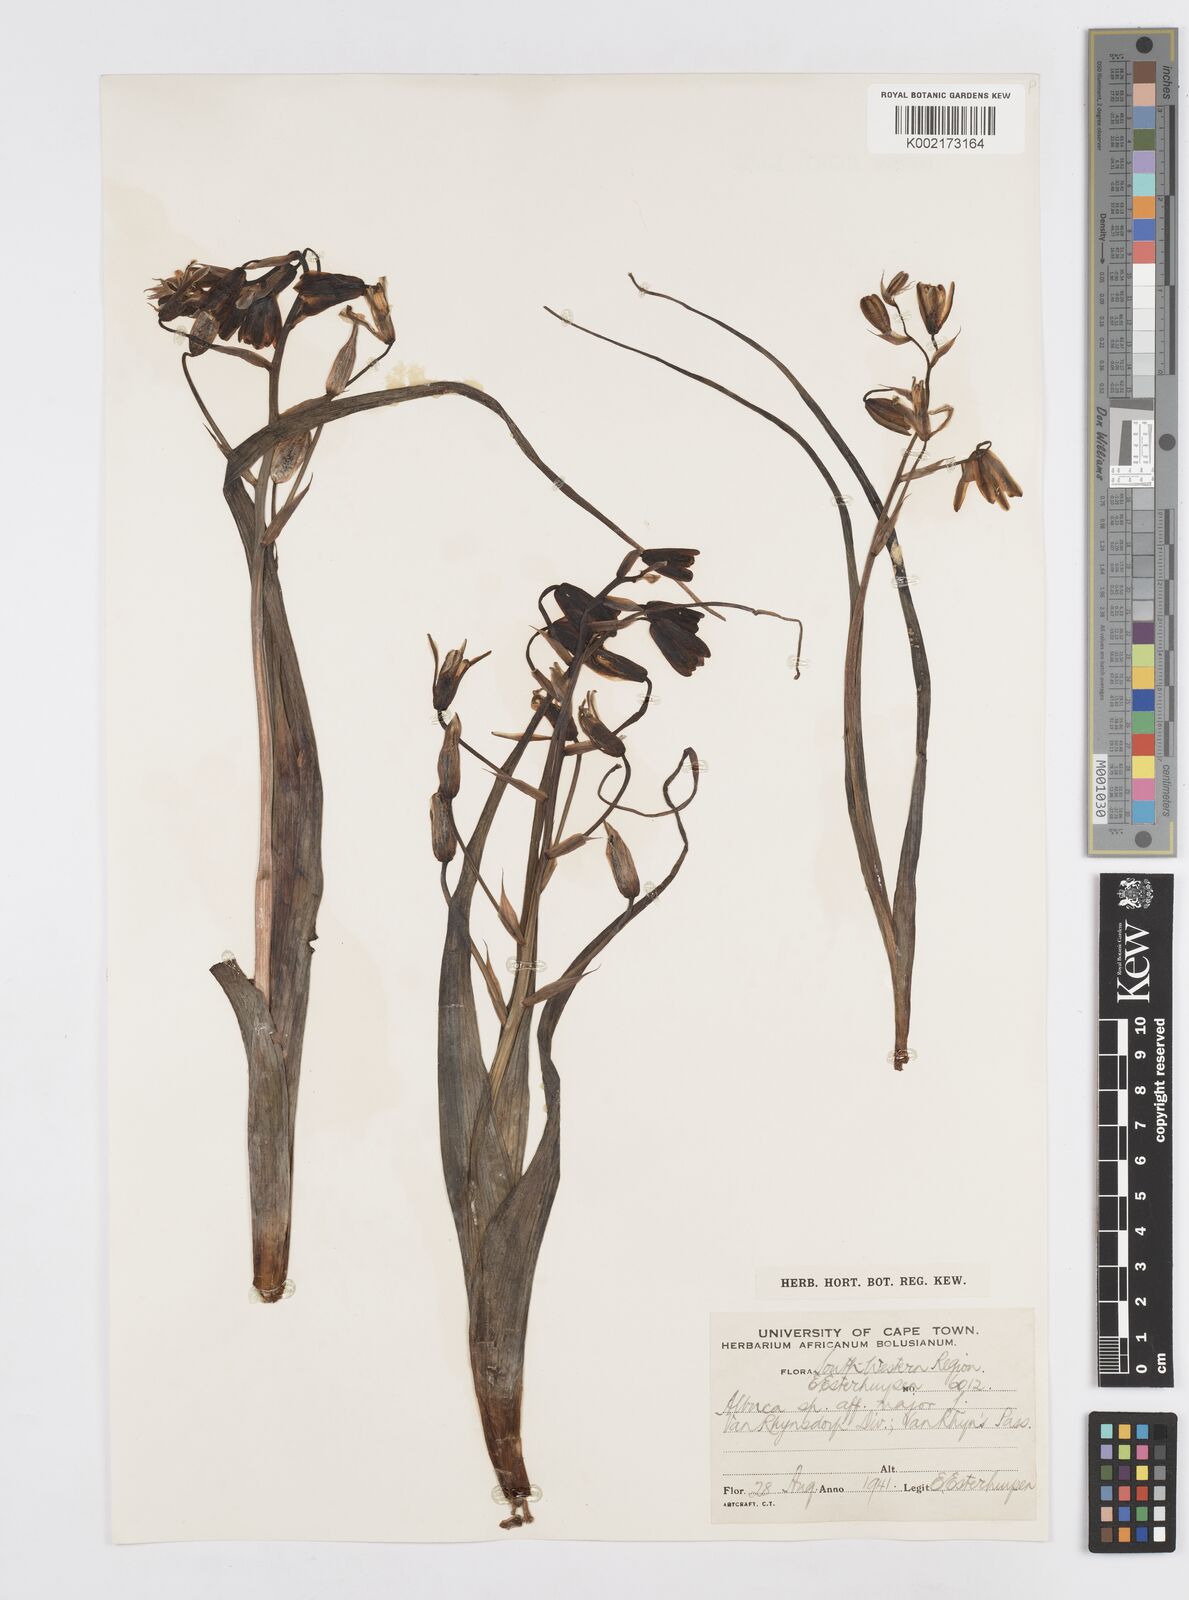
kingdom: Plantae
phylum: Tracheophyta
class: Liliopsida
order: Asparagales
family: Asparagaceae
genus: Albuca
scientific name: Albuca
